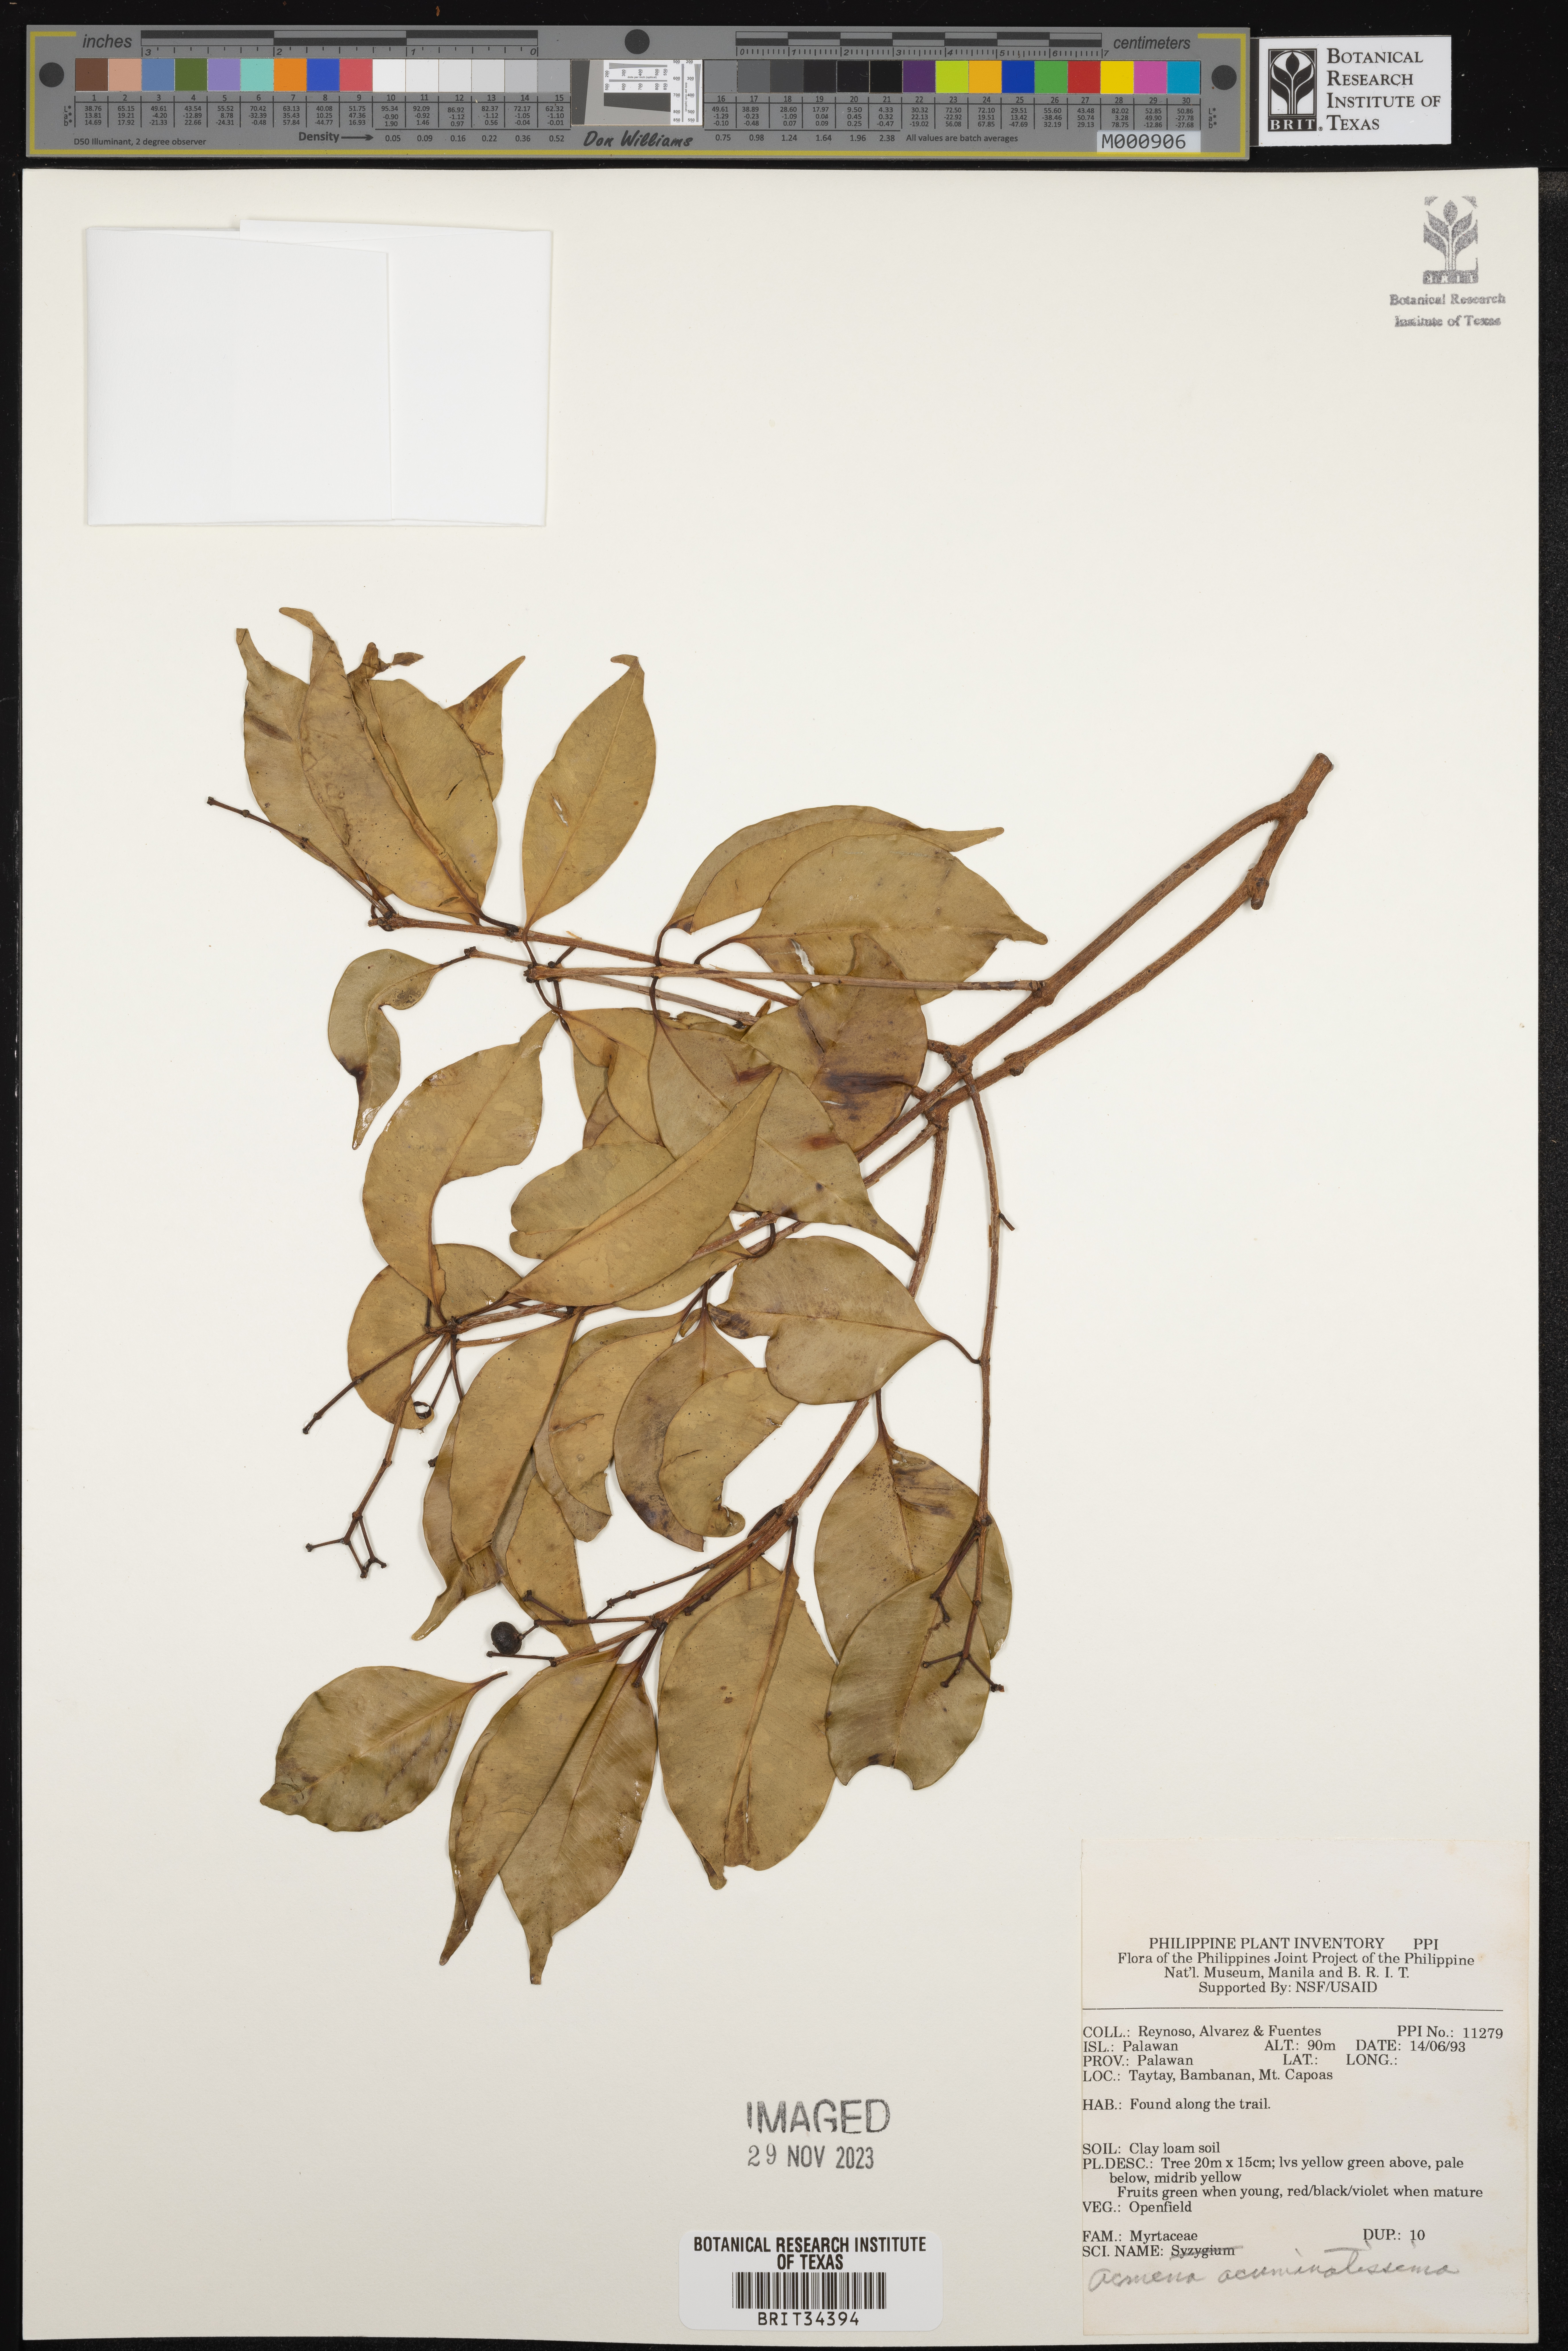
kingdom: Plantae
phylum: Tracheophyta
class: Magnoliopsida
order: Myrtales
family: Myrtaceae
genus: Syzygium
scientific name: Syzygium acuminatissimum
